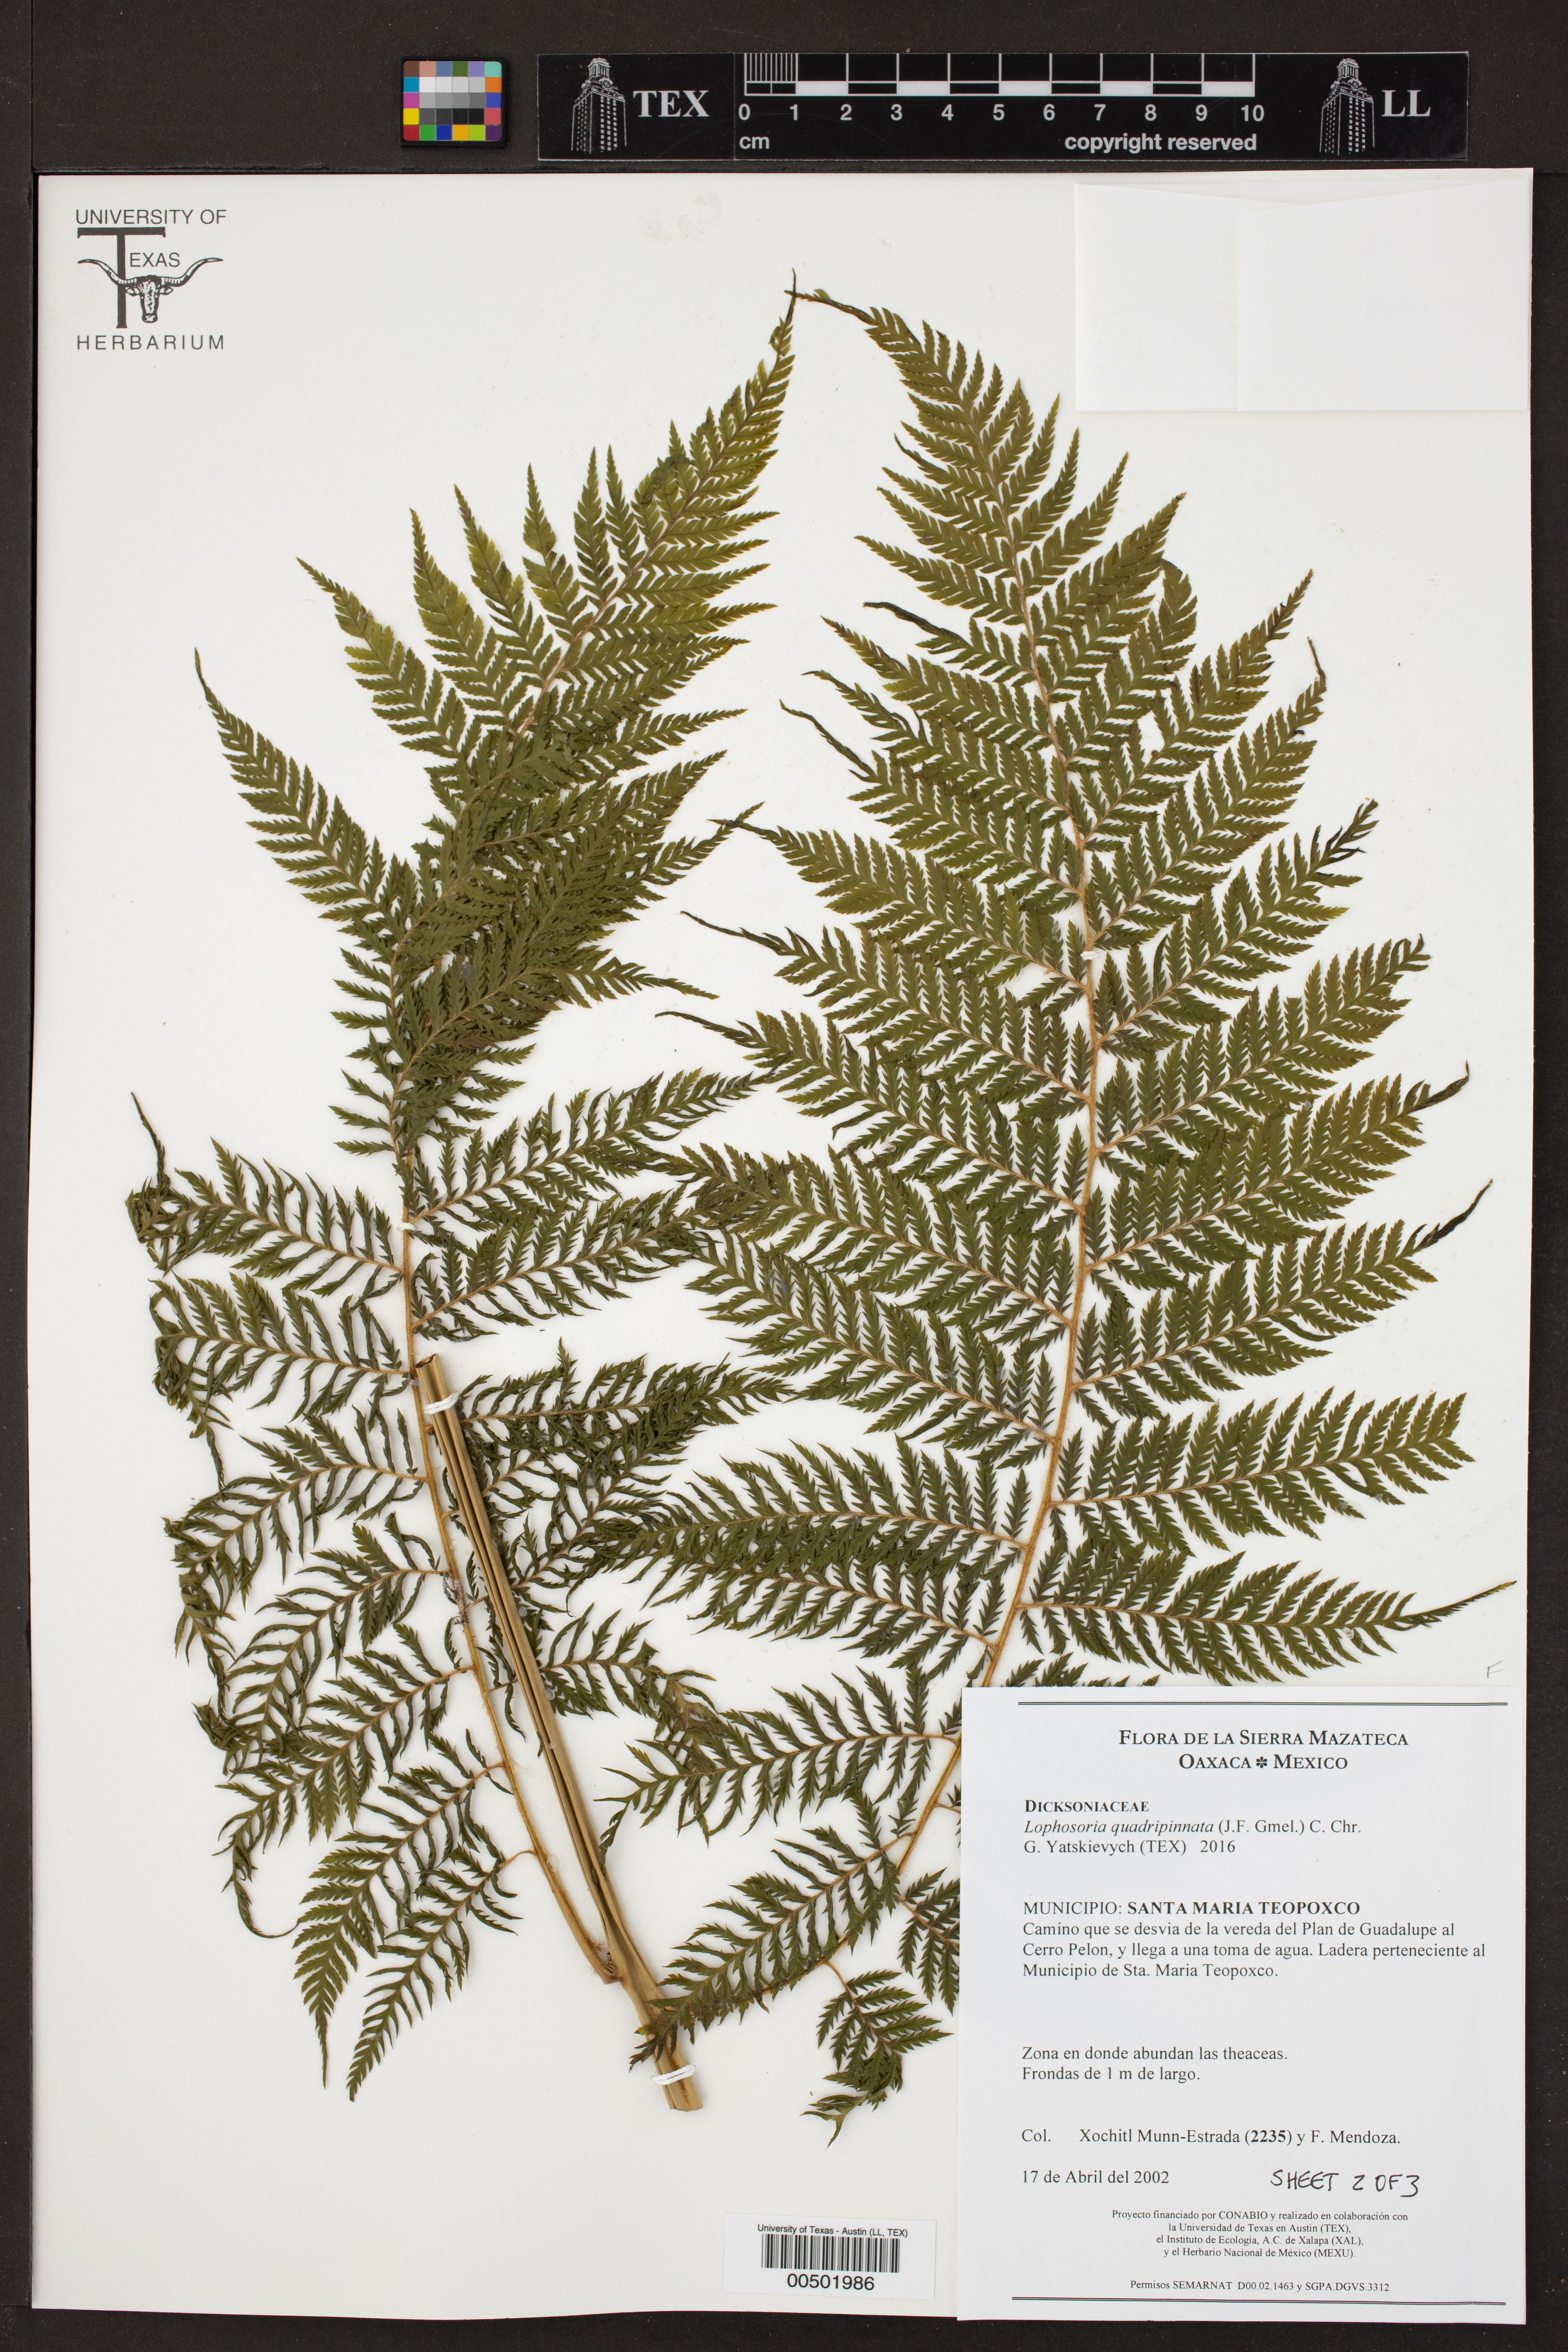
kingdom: Plantae
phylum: Tracheophyta
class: Polypodiopsida
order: Cyatheales
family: Dicksoniaceae
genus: Lophosoria
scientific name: Lophosoria quadripinnata
